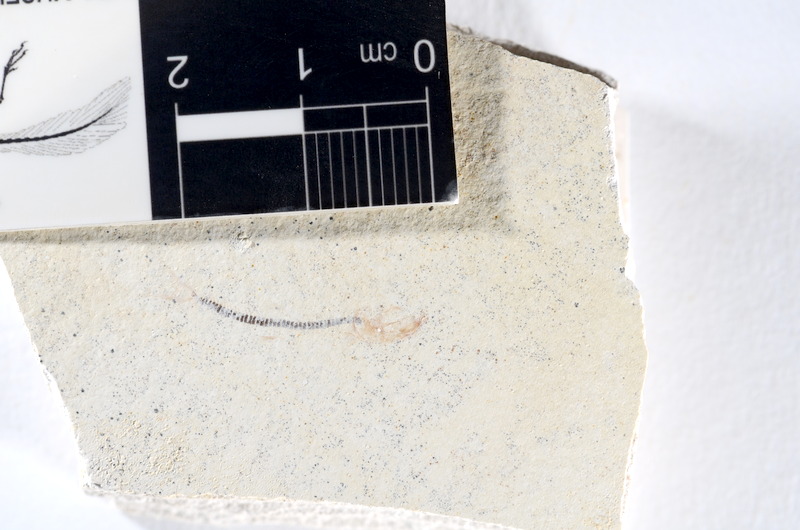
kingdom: Animalia
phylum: Chordata
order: Salmoniformes
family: Orthogonikleithridae
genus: Orthogonikleithrus
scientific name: Orthogonikleithrus hoelli
